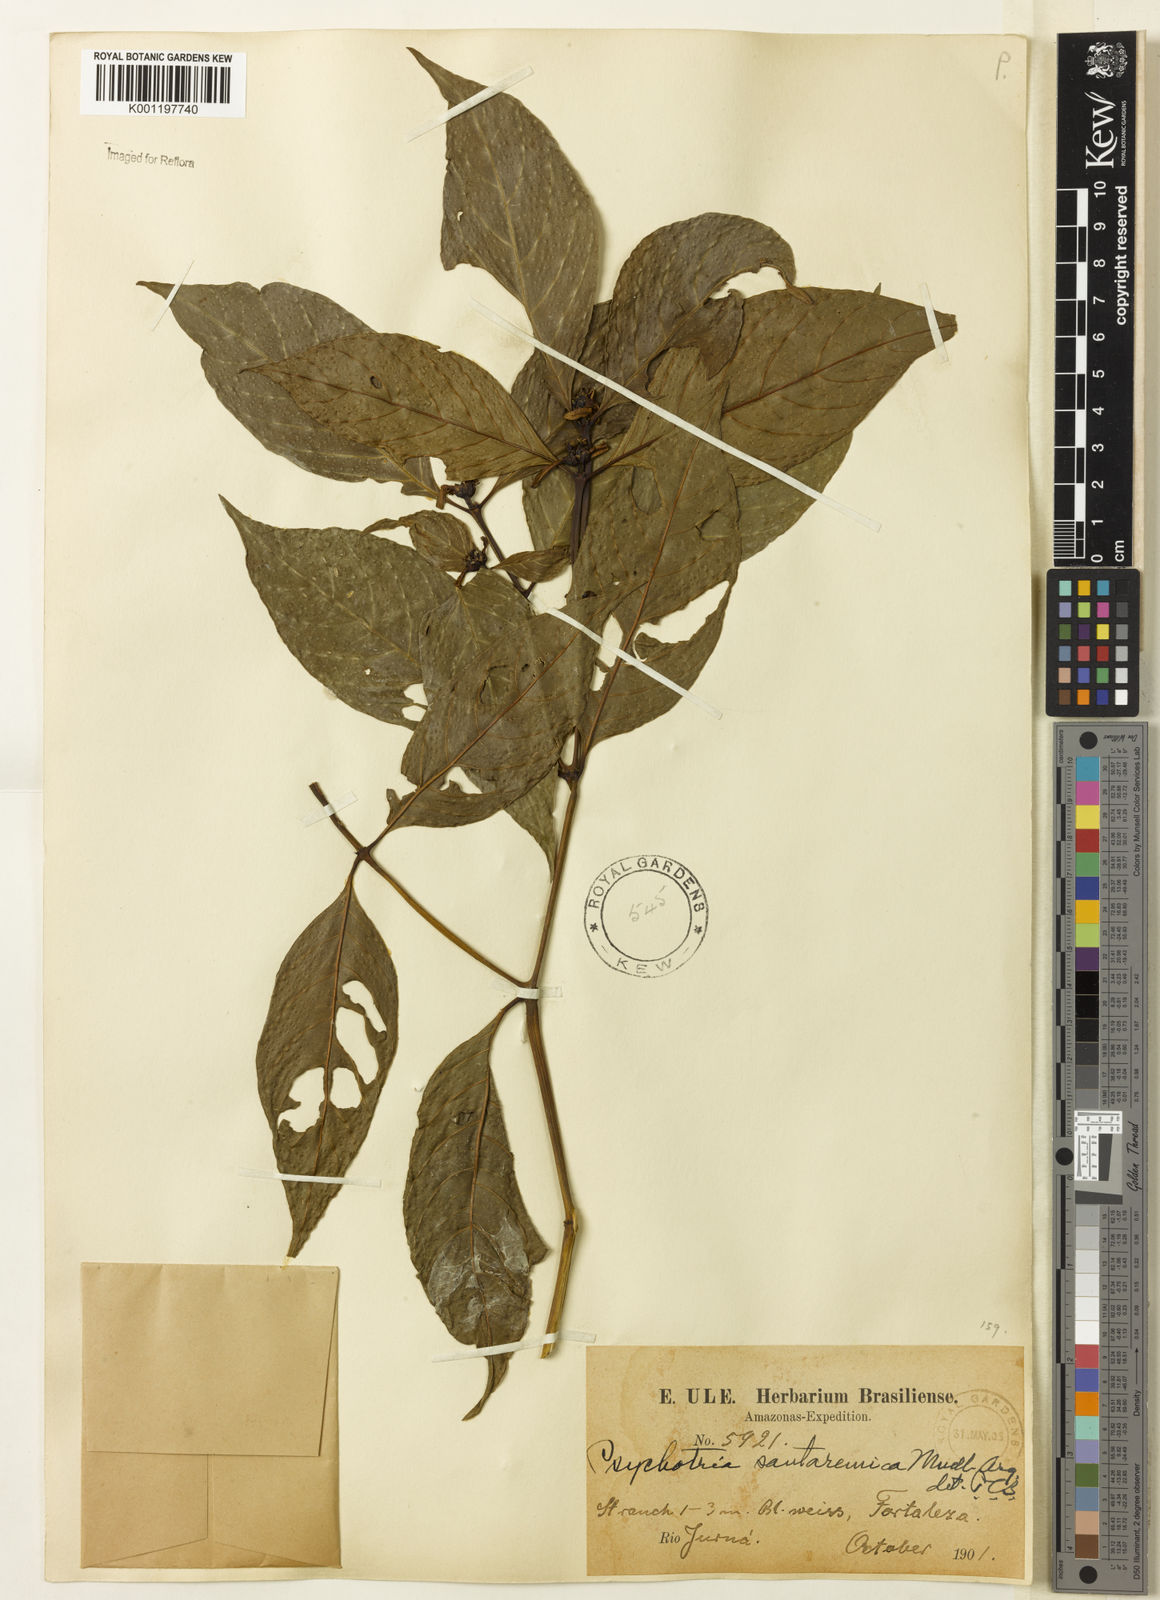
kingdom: Plantae
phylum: Tracheophyta
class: Magnoliopsida
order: Gentianales
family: Rubiaceae
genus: Psychotria
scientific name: Psychotria
